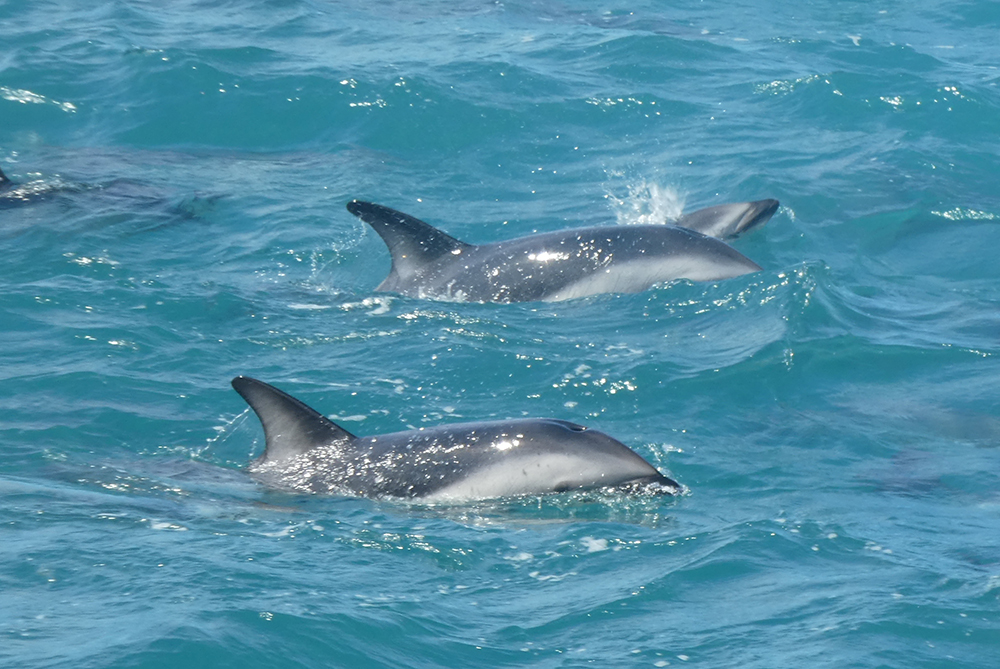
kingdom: Animalia
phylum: Chordata
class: Mammalia
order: Cetacea
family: Delphinidae
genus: Lagenorhynchus
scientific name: Lagenorhynchus obscurus
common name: Dusky dolphin
